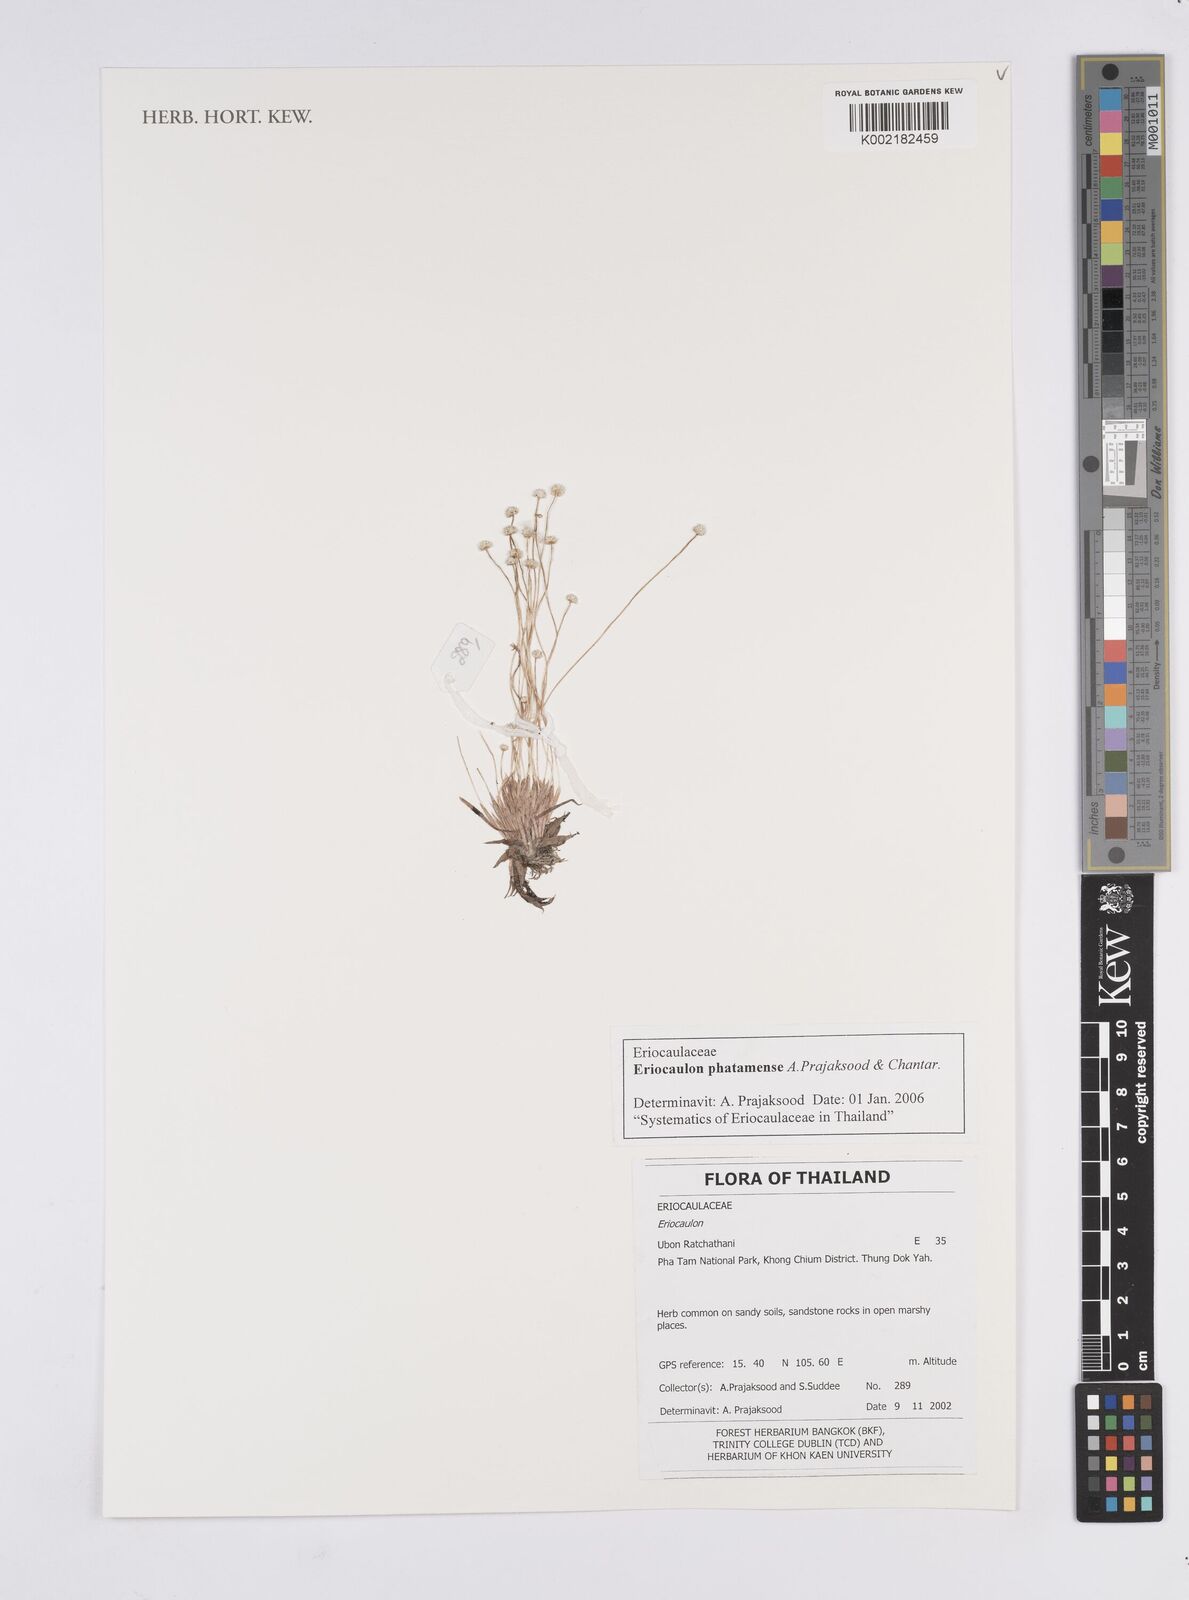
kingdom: Plantae
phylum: Tracheophyta
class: Liliopsida
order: Poales
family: Eriocaulaceae
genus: Eriocaulon
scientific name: Eriocaulon phatamense
